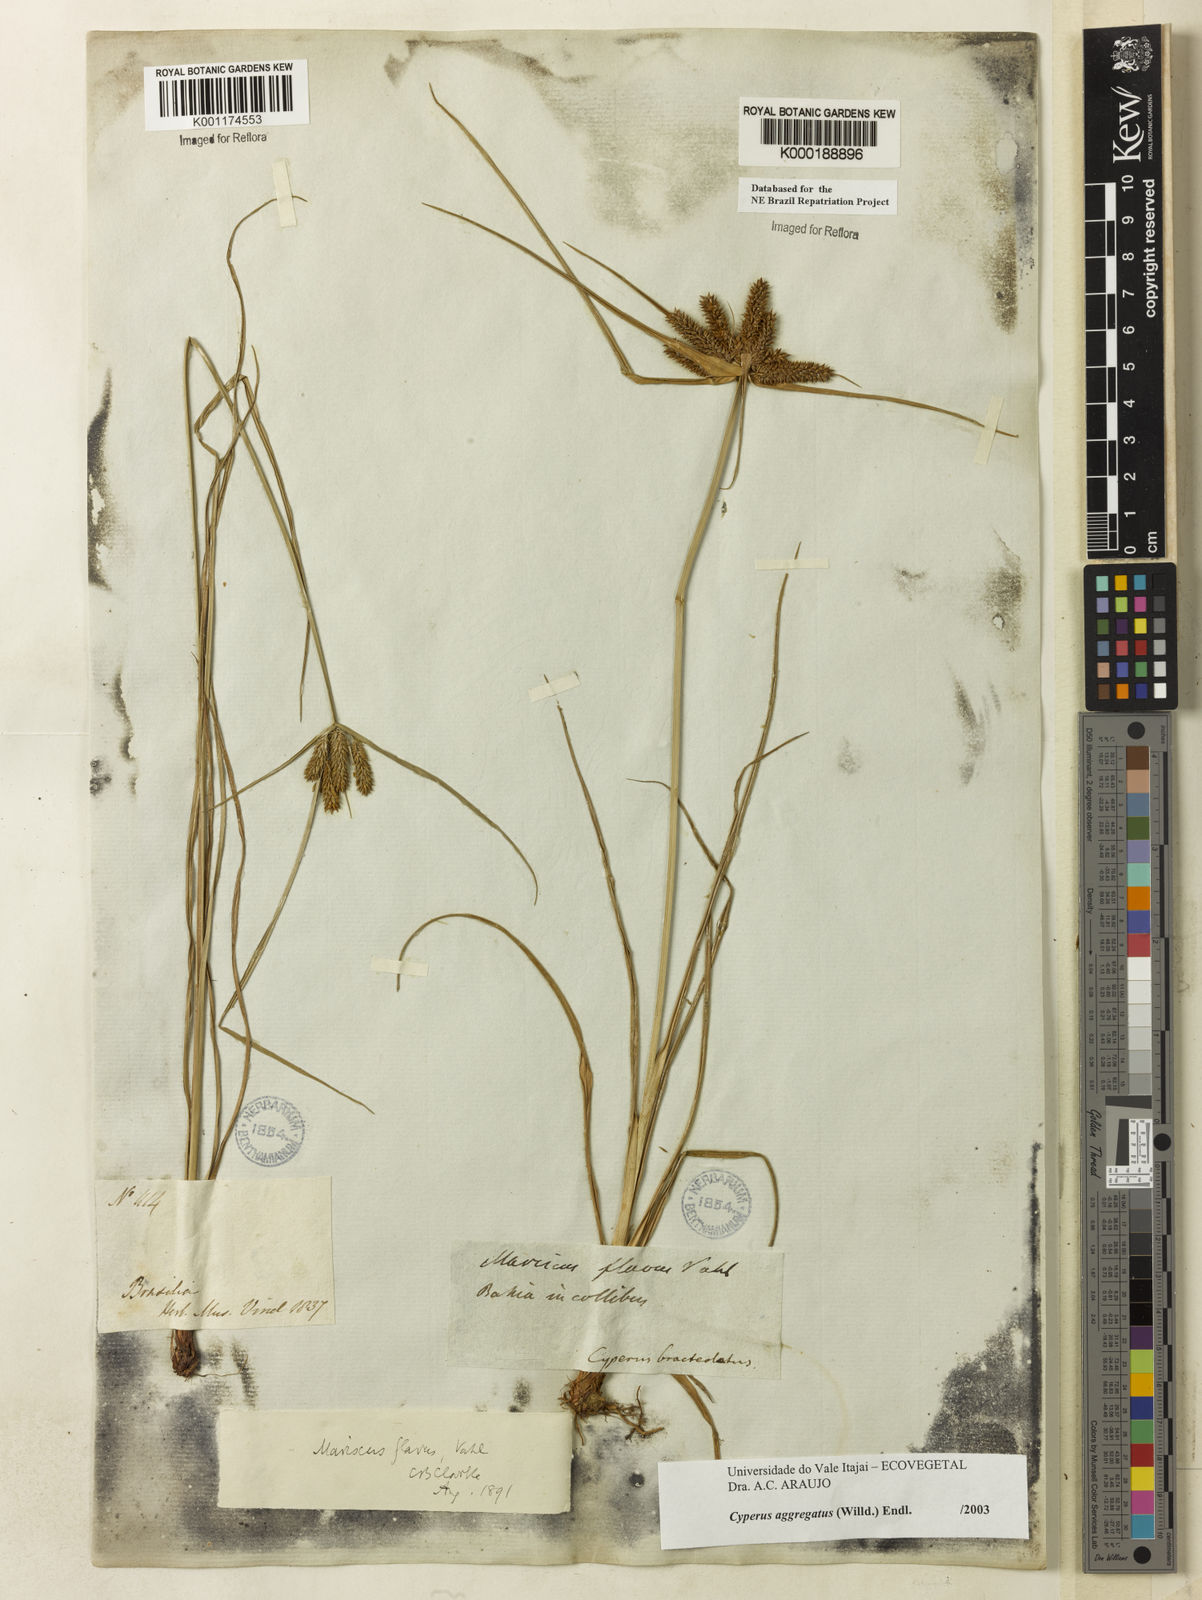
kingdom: Plantae
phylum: Tracheophyta
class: Liliopsida
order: Poales
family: Cyperaceae
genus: Cyperus
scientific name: Cyperus aggregatus
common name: Inflatedscale flatsedge
